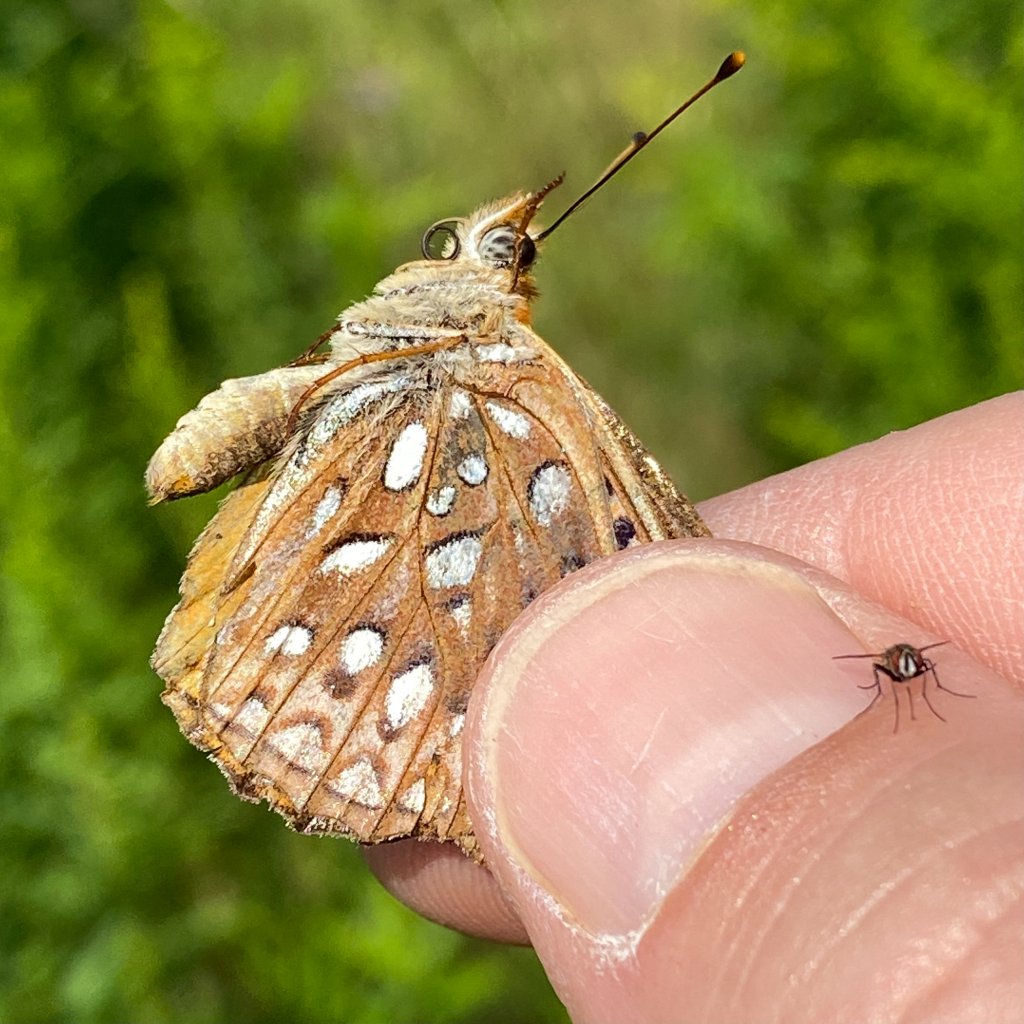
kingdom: Animalia
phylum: Arthropoda
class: Insecta
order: Lepidoptera
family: Nymphalidae
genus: Speyeria
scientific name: Speyeria atlantis
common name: Atlantis Fritillary
